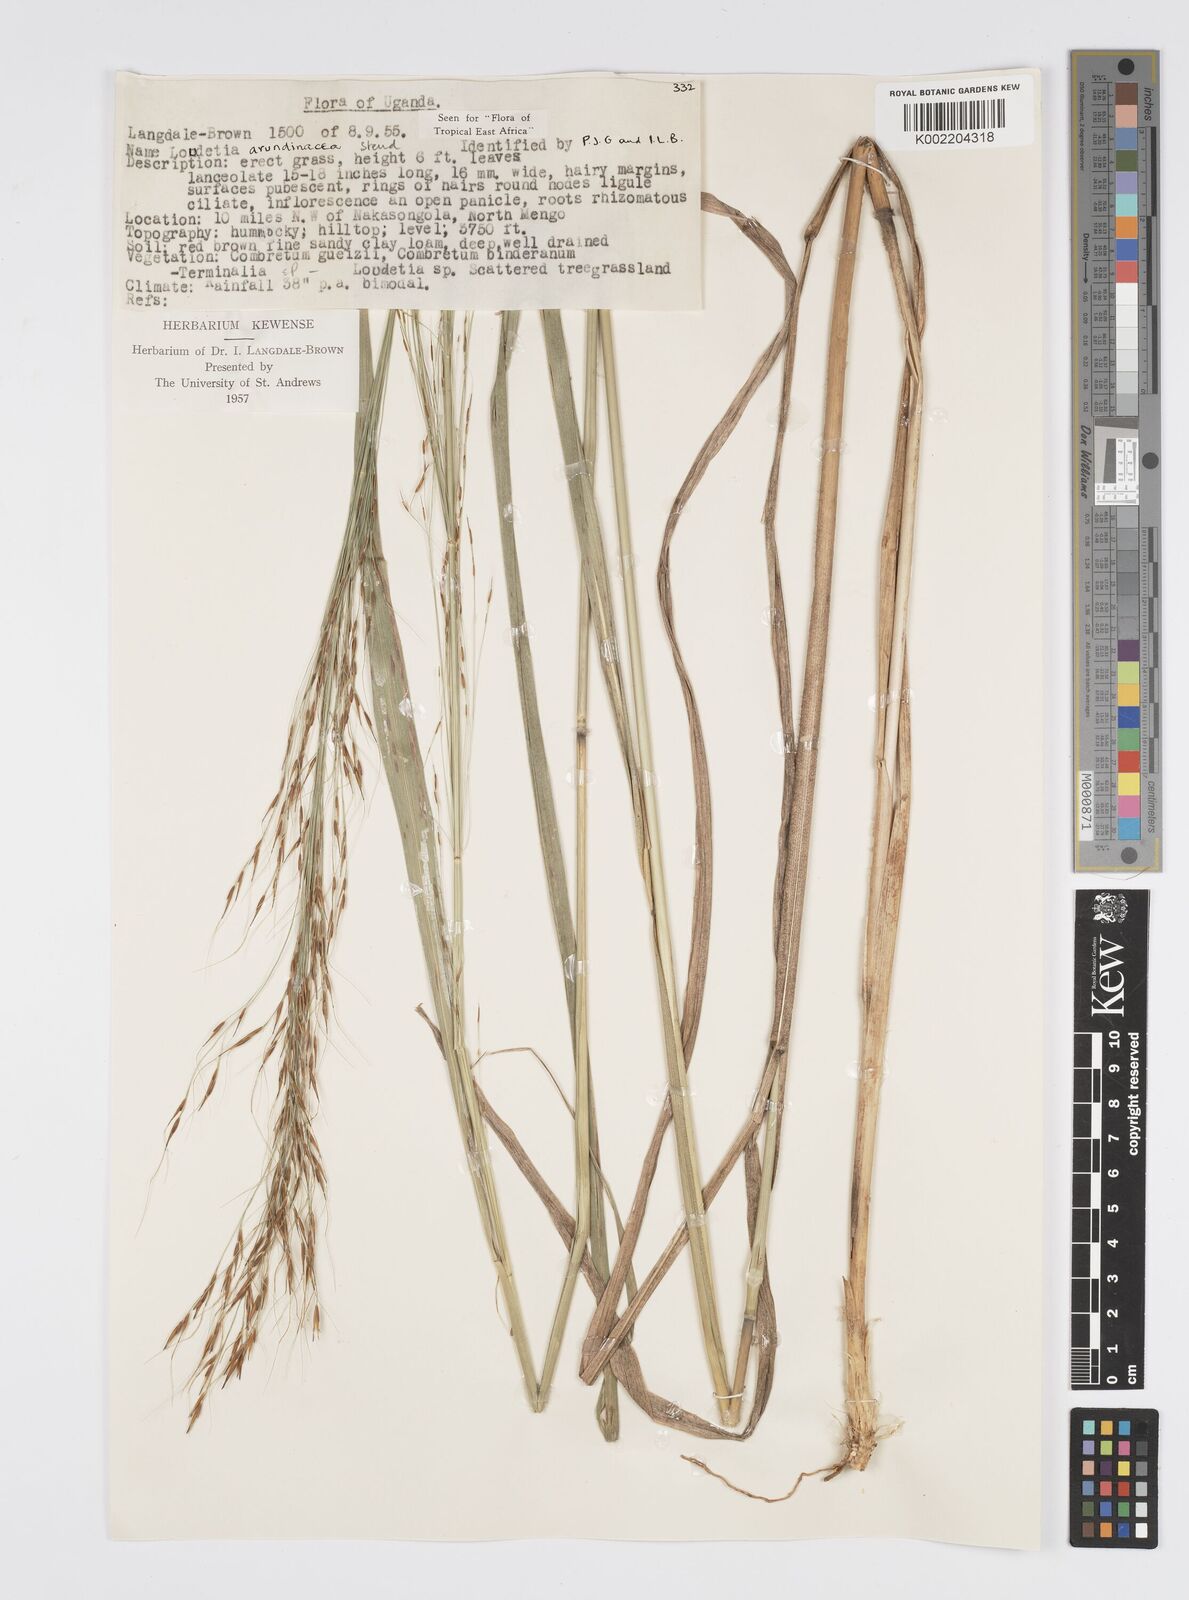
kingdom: Plantae
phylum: Tracheophyta
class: Liliopsida
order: Poales
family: Poaceae
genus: Loudetia
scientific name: Loudetia arundinacea
